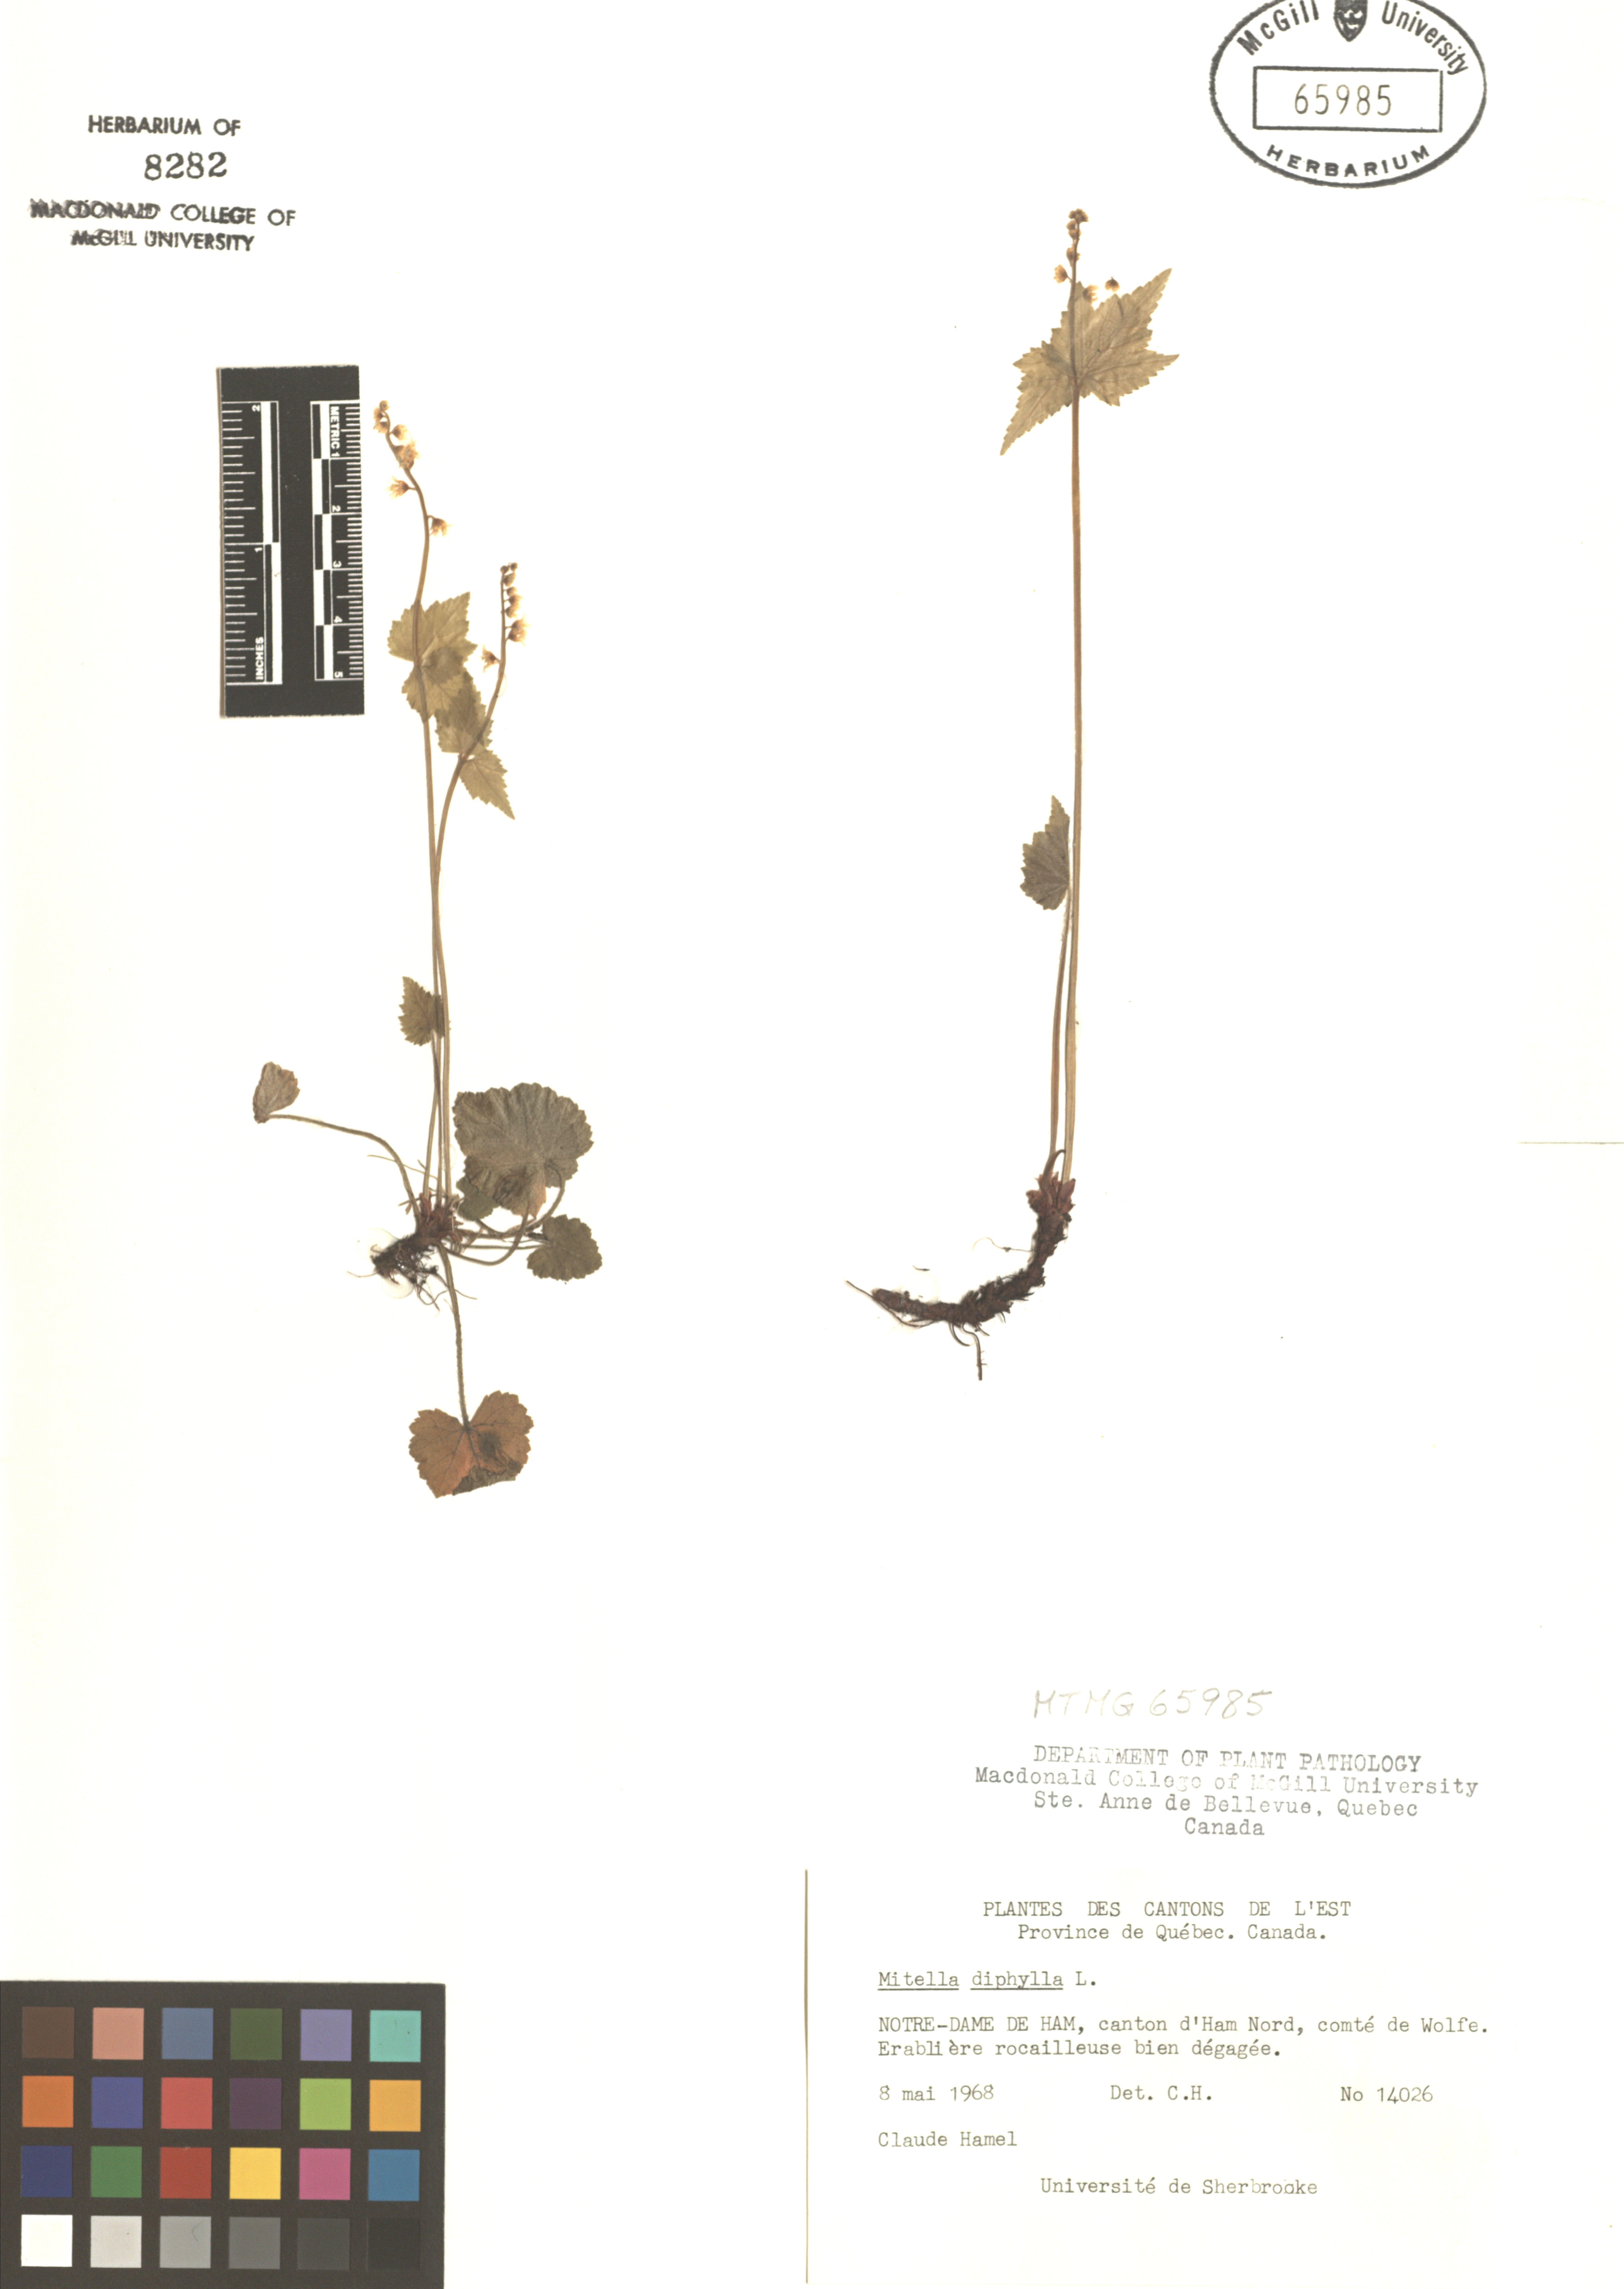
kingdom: Plantae
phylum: Tracheophyta
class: Magnoliopsida
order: Saxifragales
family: Saxifragaceae
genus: Mitella
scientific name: Mitella diphylla
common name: Coolwort
